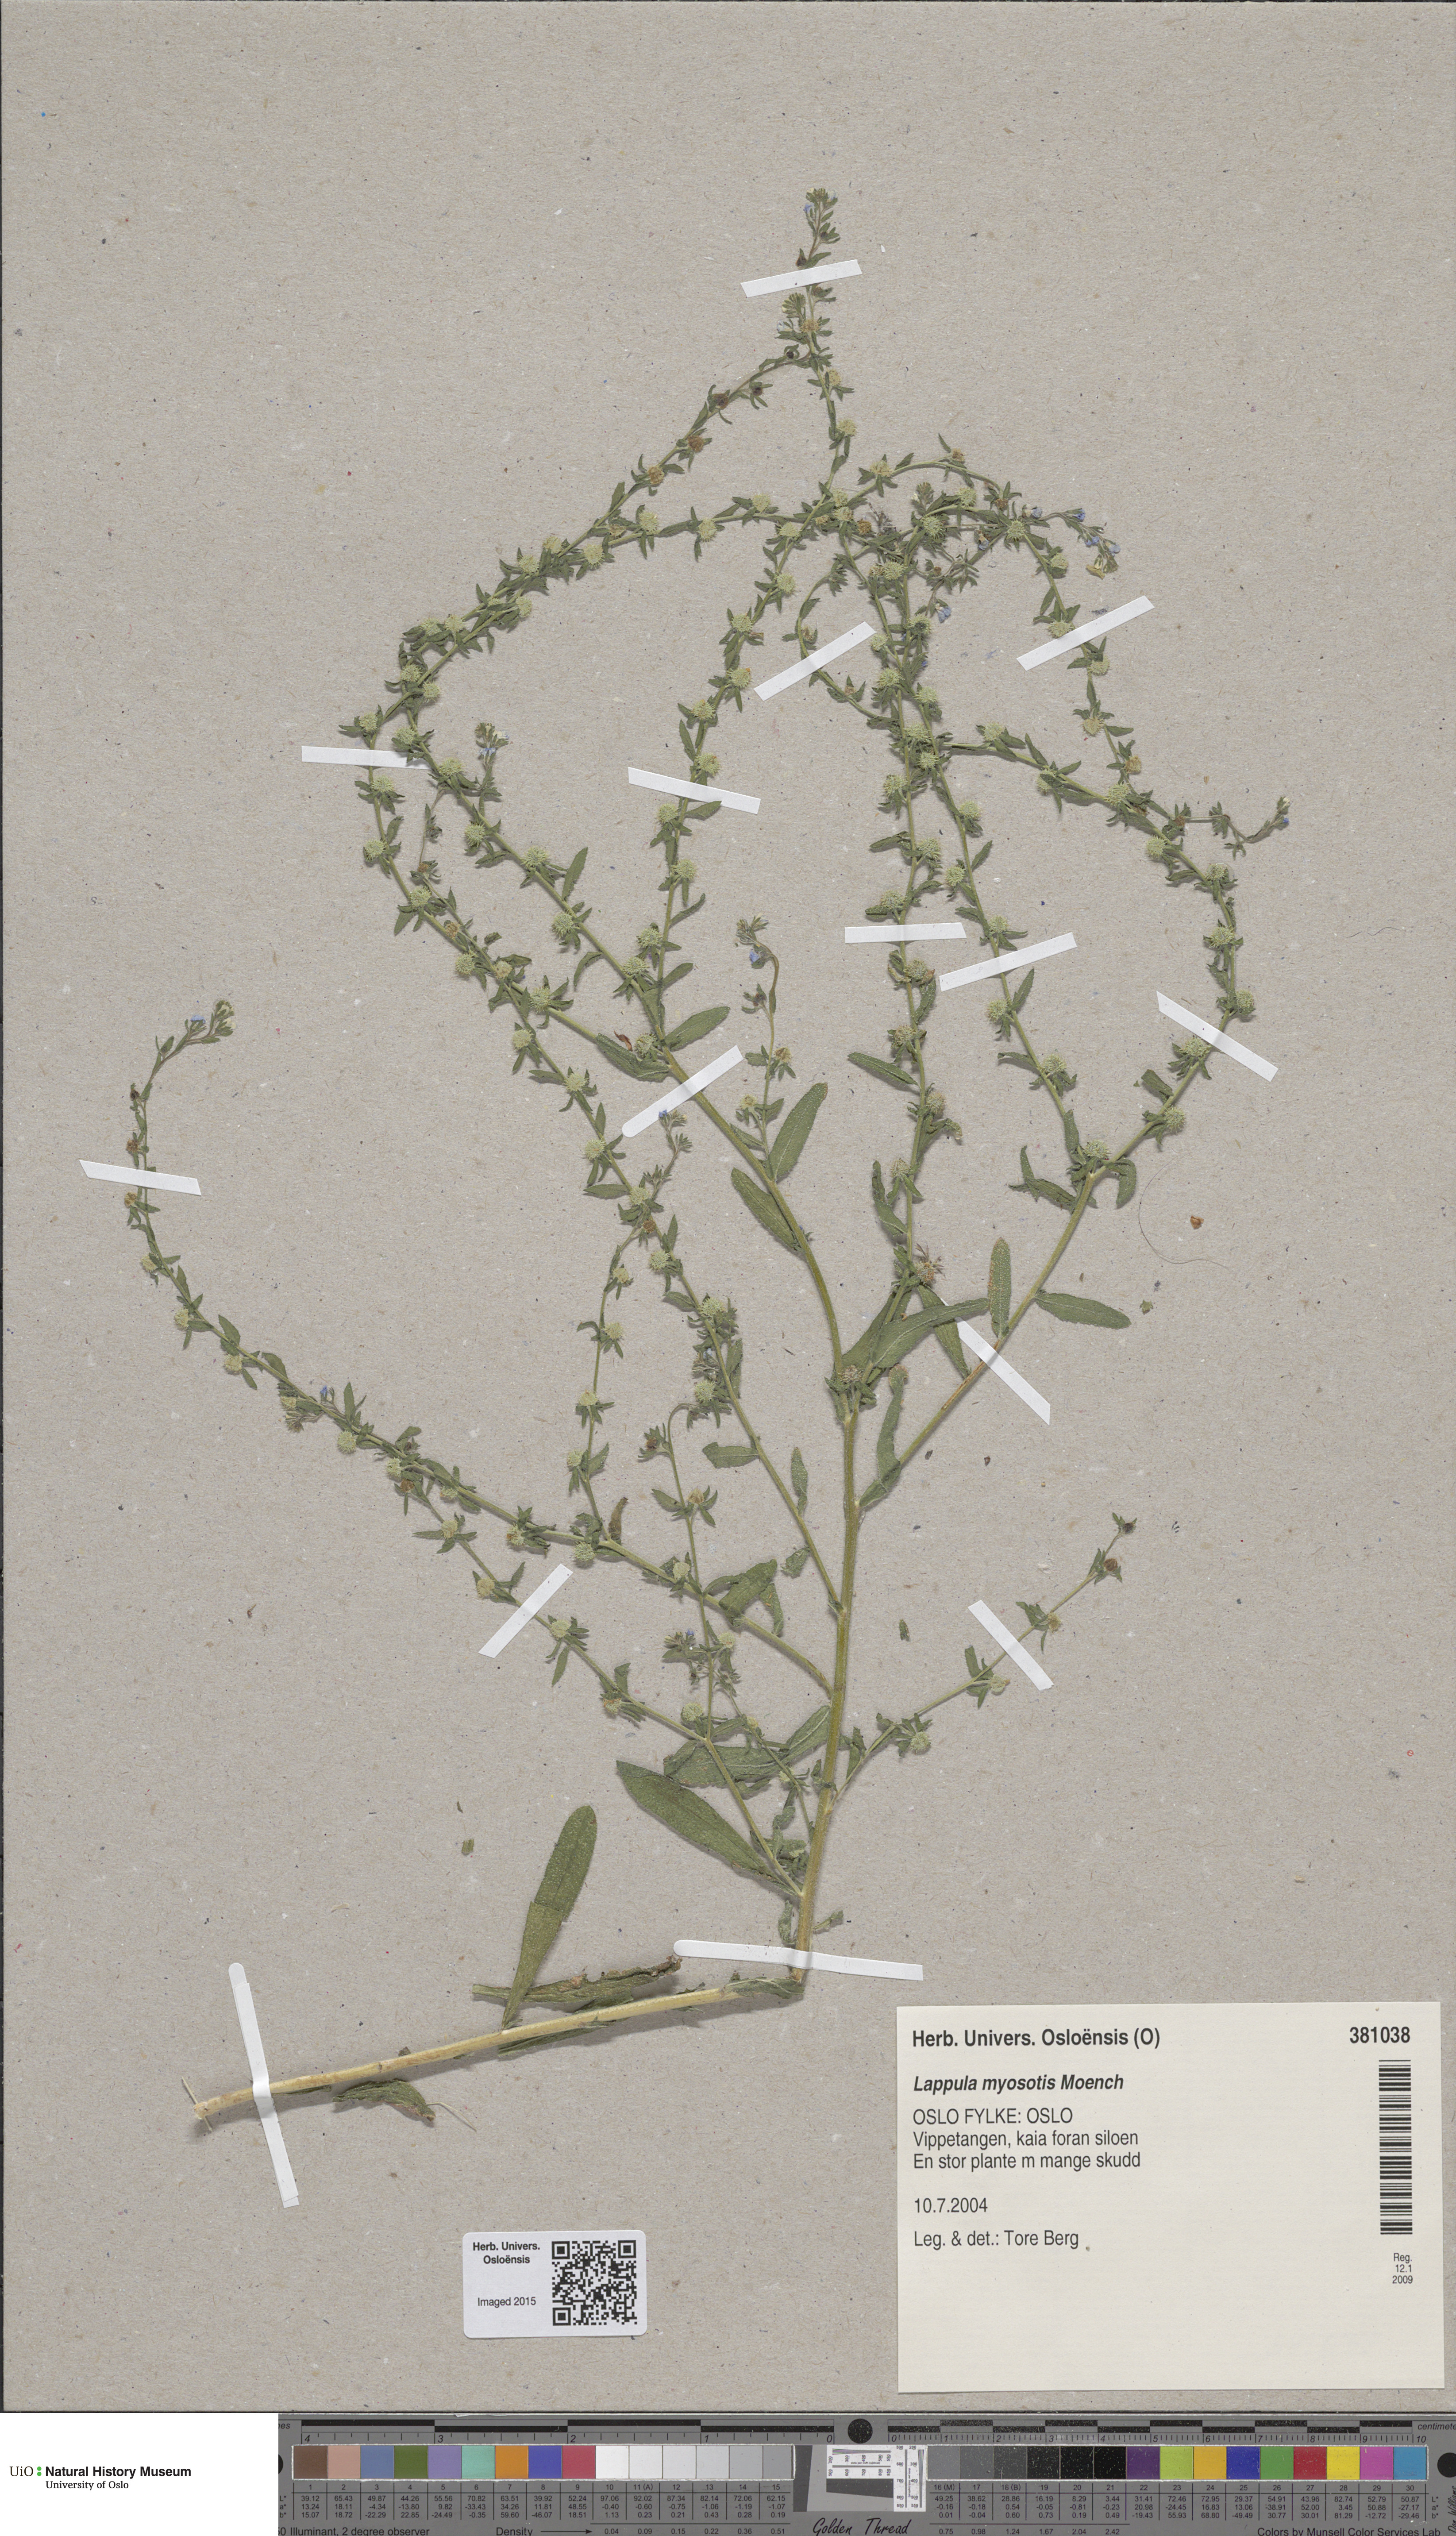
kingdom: Plantae
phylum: Tracheophyta
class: Magnoliopsida
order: Boraginales
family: Boraginaceae
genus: Lappula
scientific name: Lappula squarrosa
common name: European stickseed
